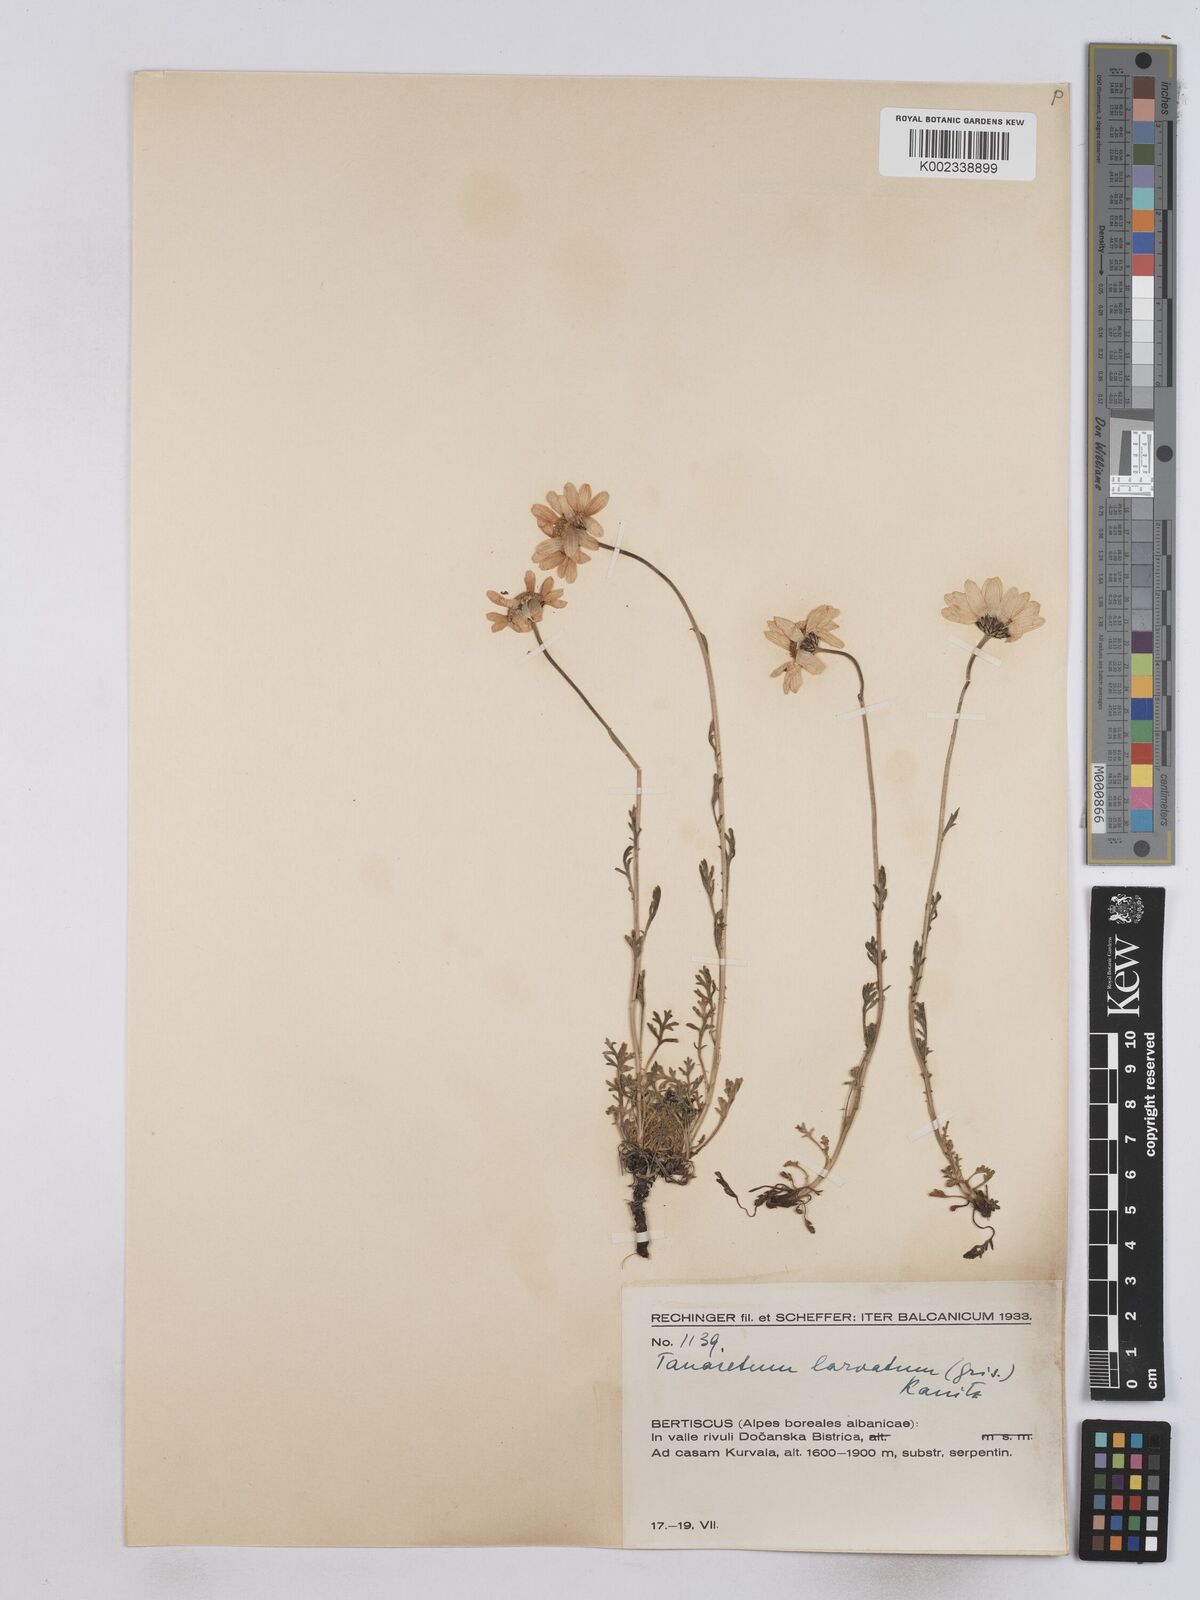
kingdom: Plantae
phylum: Tracheophyta
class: Magnoliopsida
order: Asterales
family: Asteraceae
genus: Leucanthemum
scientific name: Leucanthemum coronopifolium
